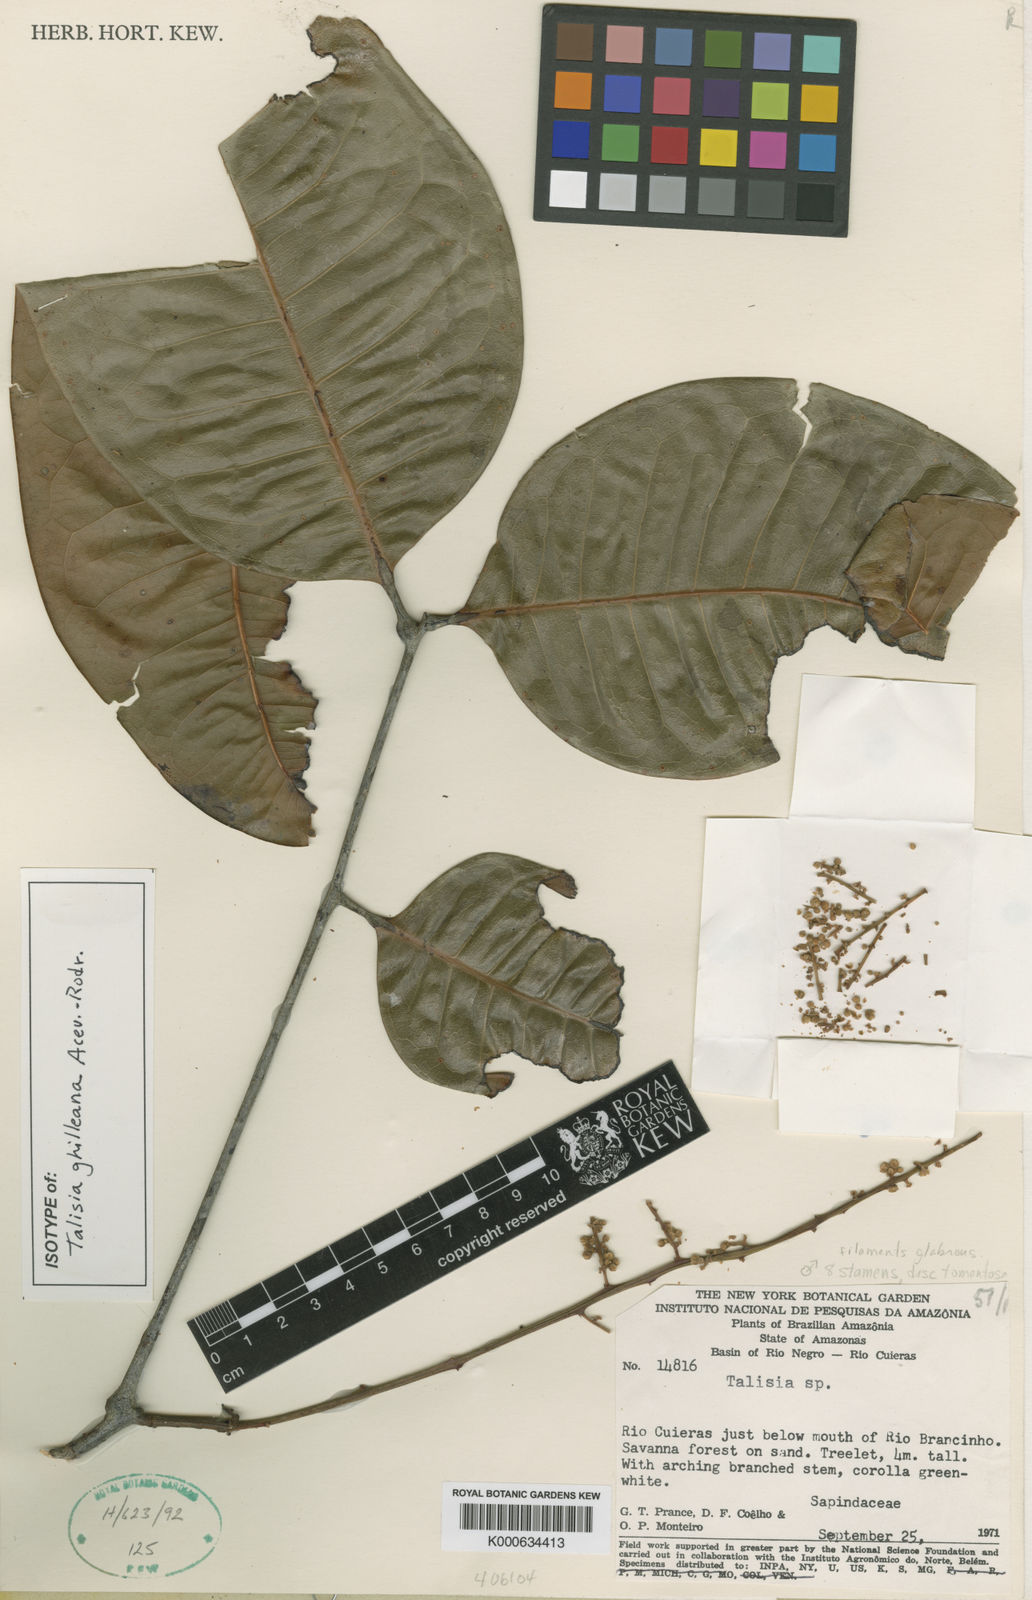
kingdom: Plantae
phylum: Tracheophyta
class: Magnoliopsida
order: Sapindales
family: Sapindaceae
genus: Talisia
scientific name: Talisia ghilleana
